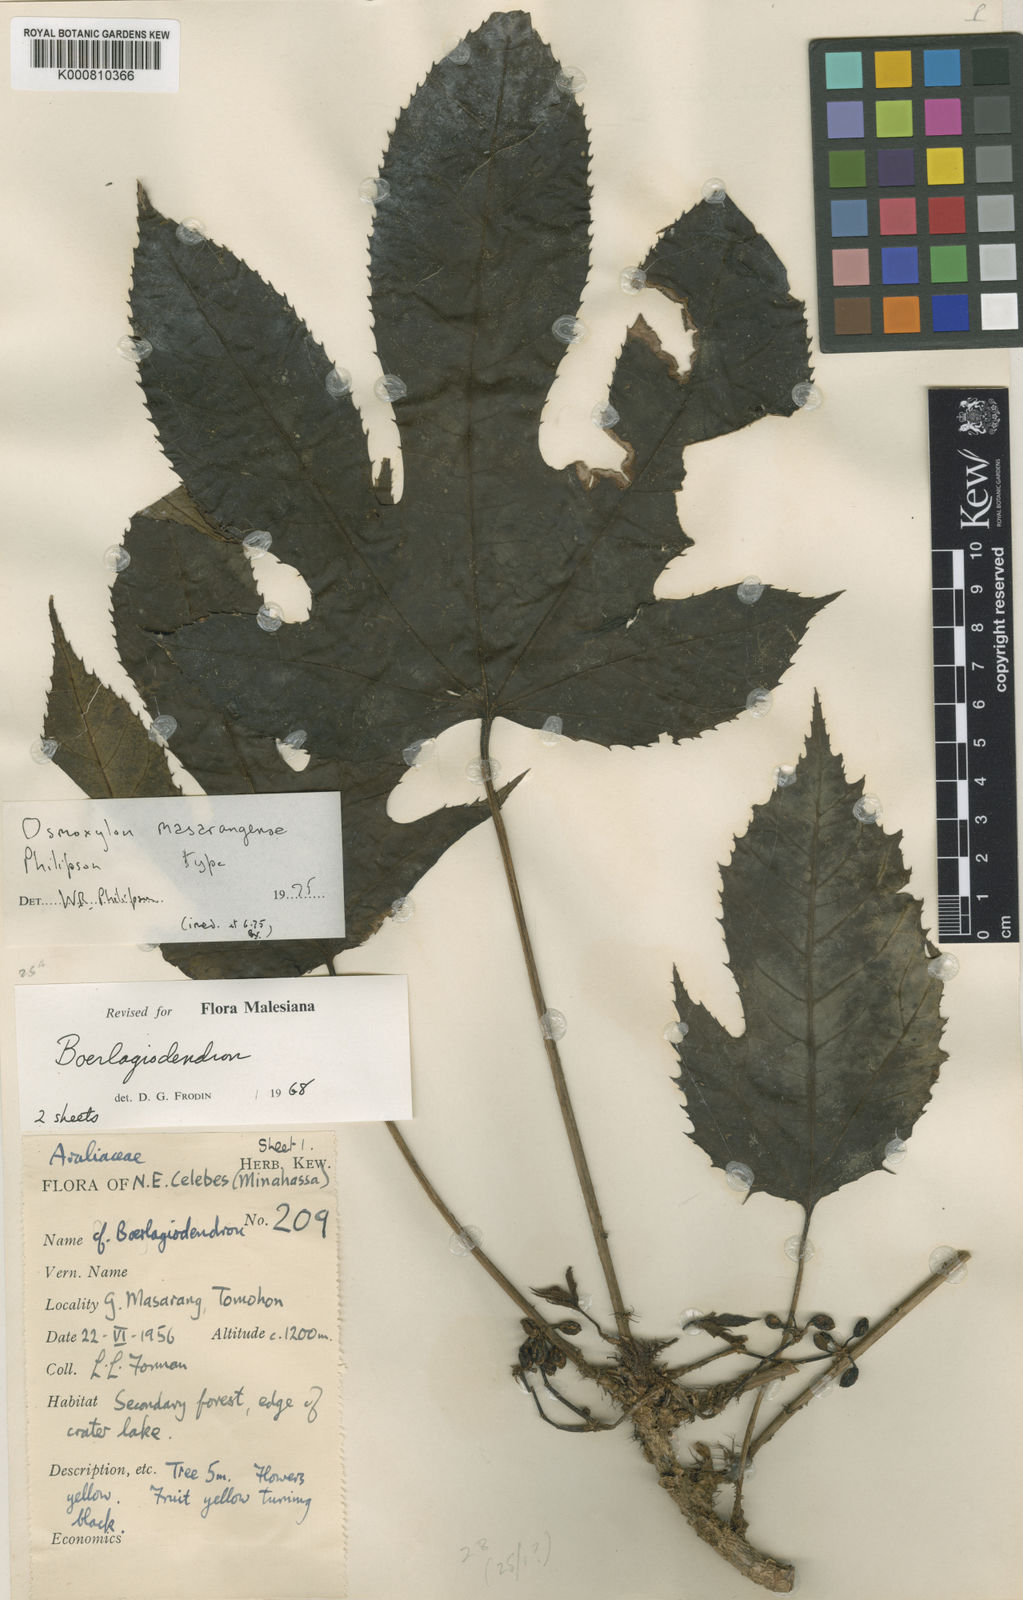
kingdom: Plantae
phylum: Tracheophyta
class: Magnoliopsida
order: Apiales
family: Araliaceae
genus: Osmoxylon
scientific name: Osmoxylon masarangense
